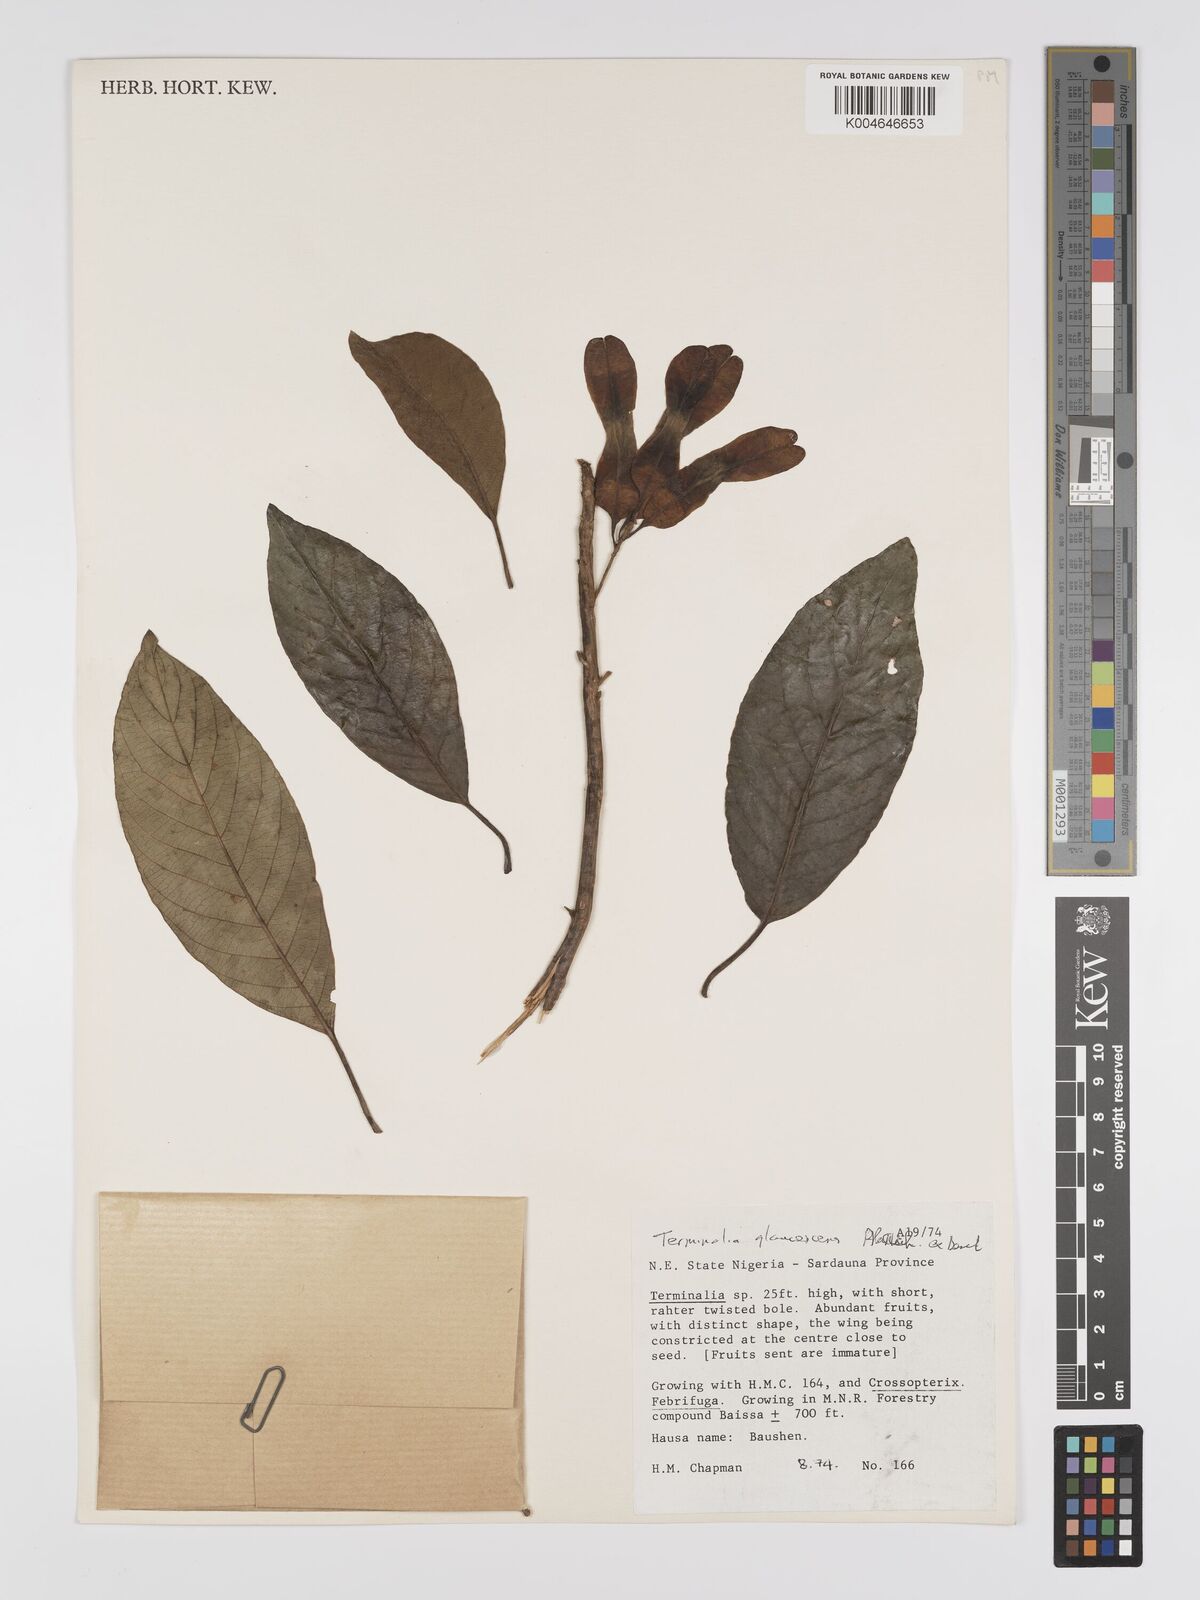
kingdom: Plantae
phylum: Tracheophyta
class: Magnoliopsida
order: Myrtales
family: Combretaceae
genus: Terminalia
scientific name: Terminalia schimperiana
